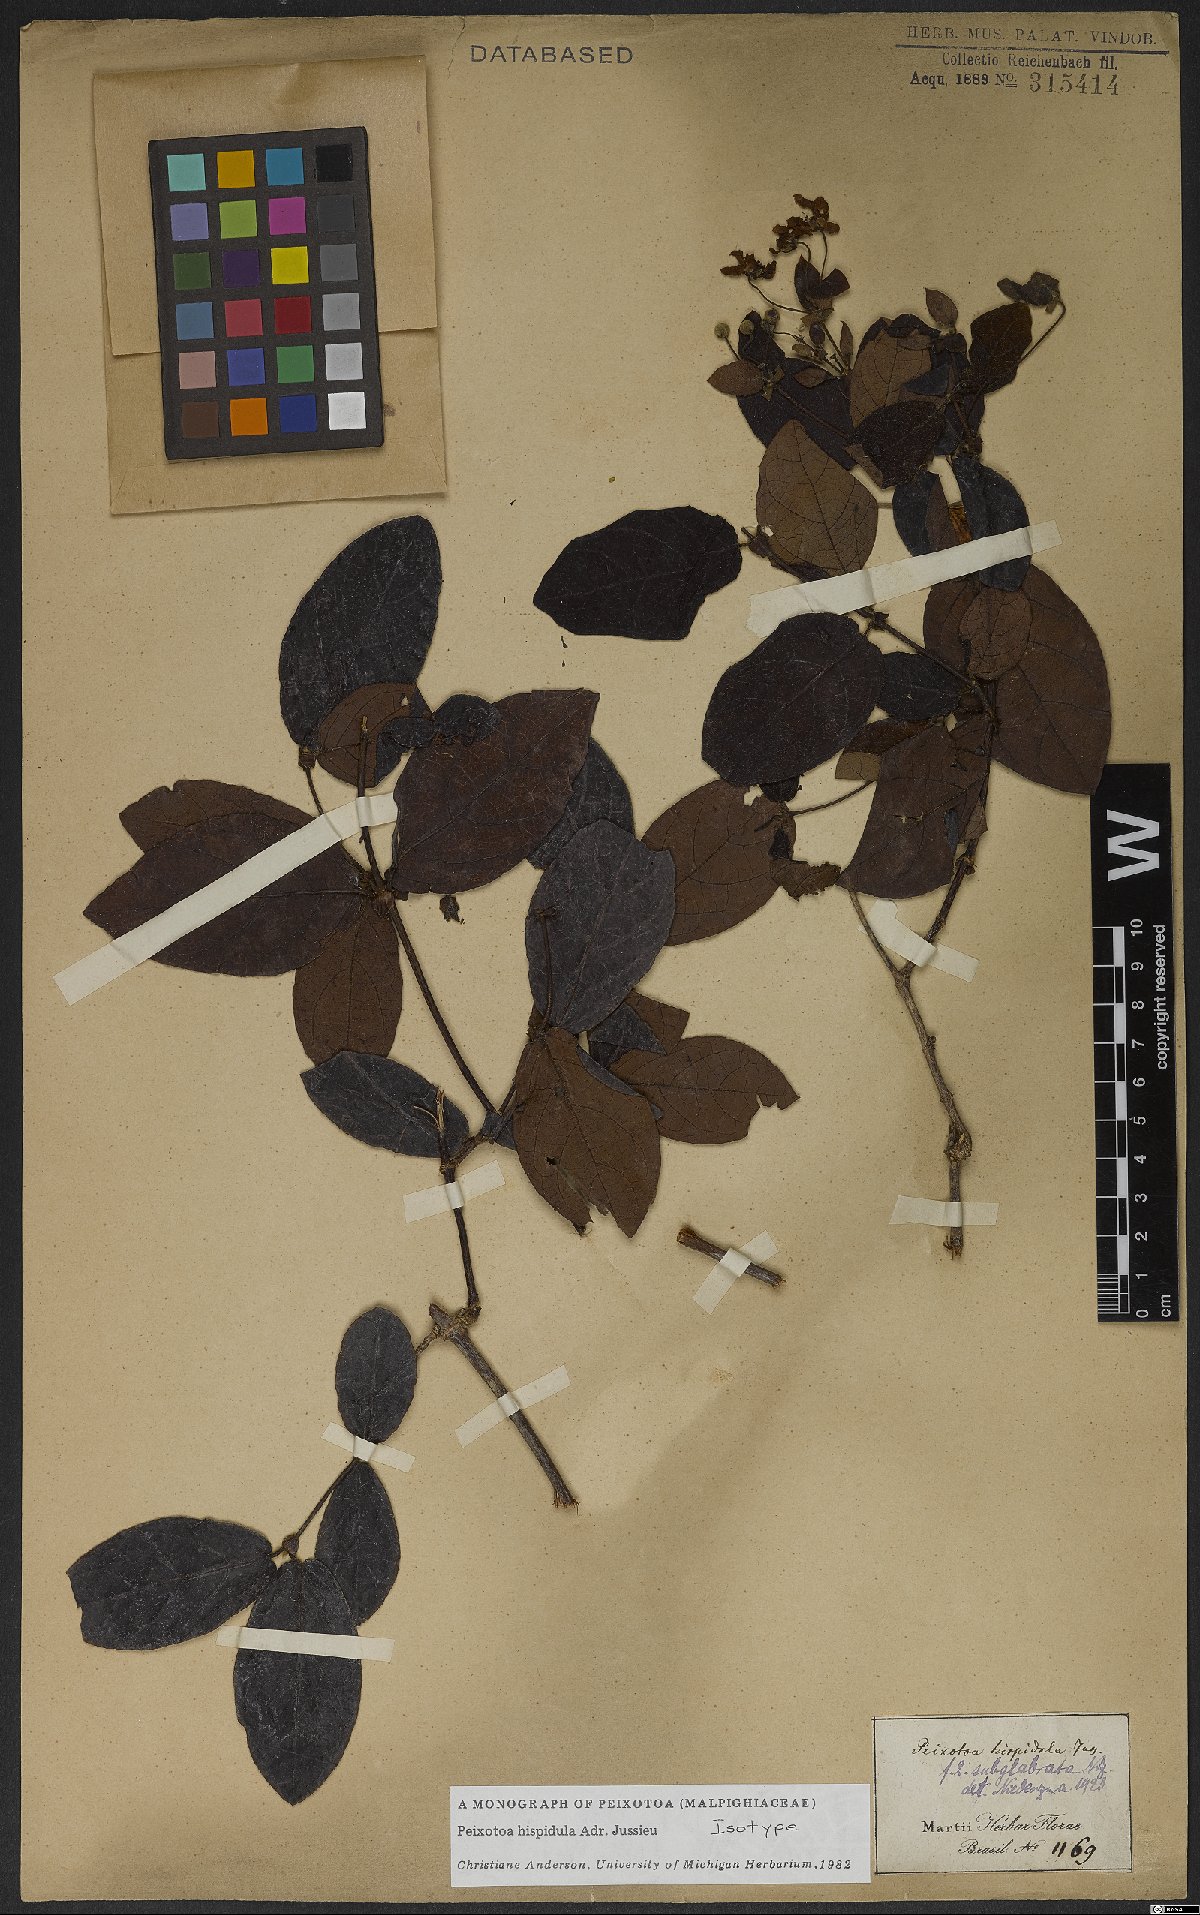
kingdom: Plantae
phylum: Tracheophyta
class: Magnoliopsida
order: Malpighiales
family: Malpighiaceae
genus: Peixotoa
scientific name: Peixotoa hispidula
